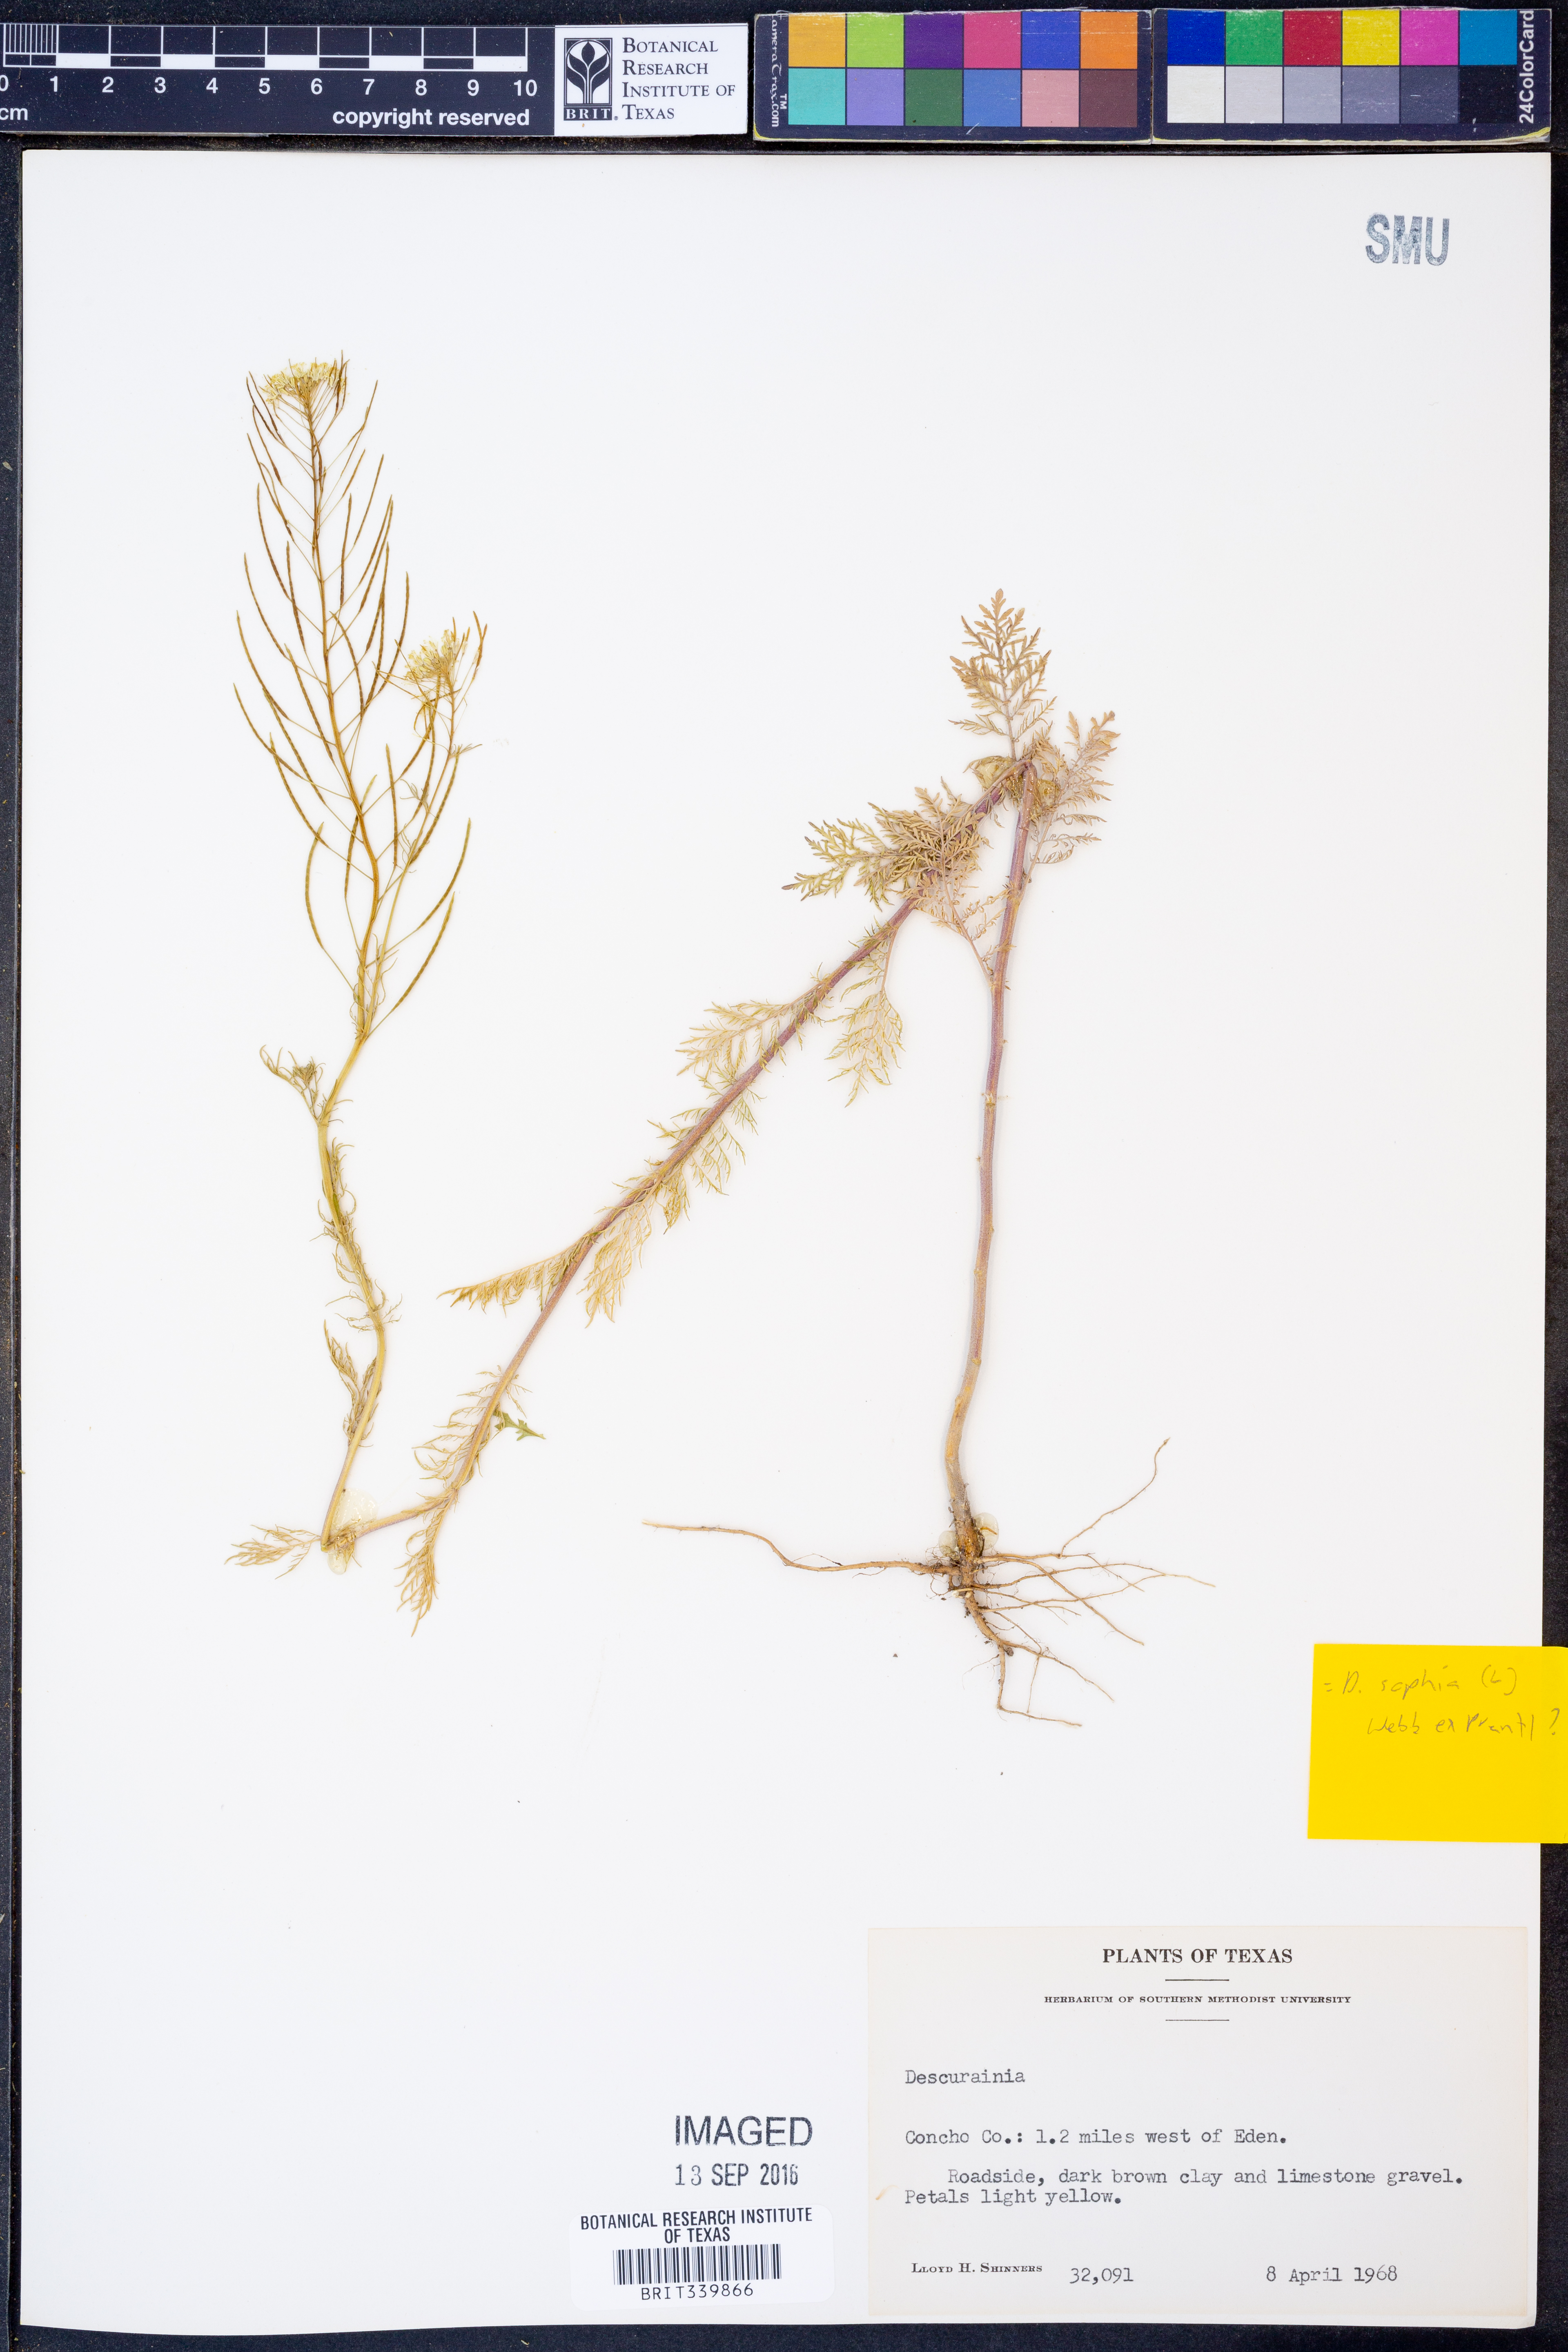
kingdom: Plantae
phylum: Tracheophyta
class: Magnoliopsida
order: Brassicales
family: Brassicaceae
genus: Descurainia
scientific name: Descurainia sophia
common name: Flixweed
